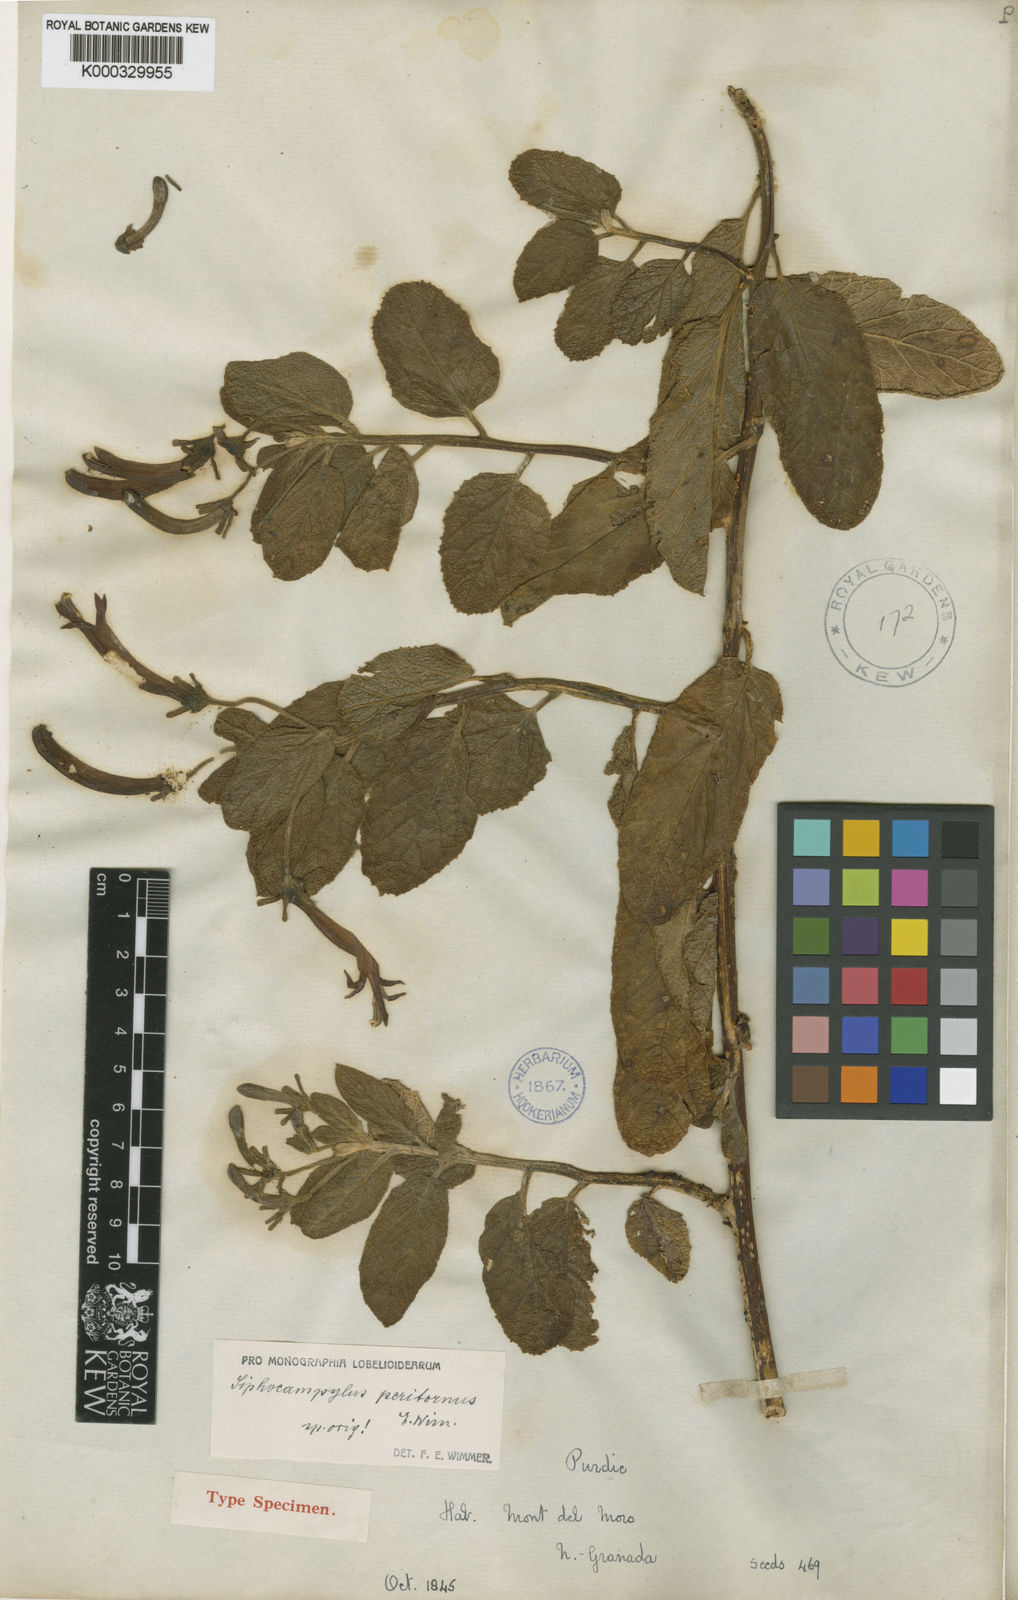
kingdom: Plantae
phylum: Tracheophyta
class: Magnoliopsida
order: Asterales
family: Campanulaceae
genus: Siphocampylus
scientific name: Siphocampylus ellipticus
